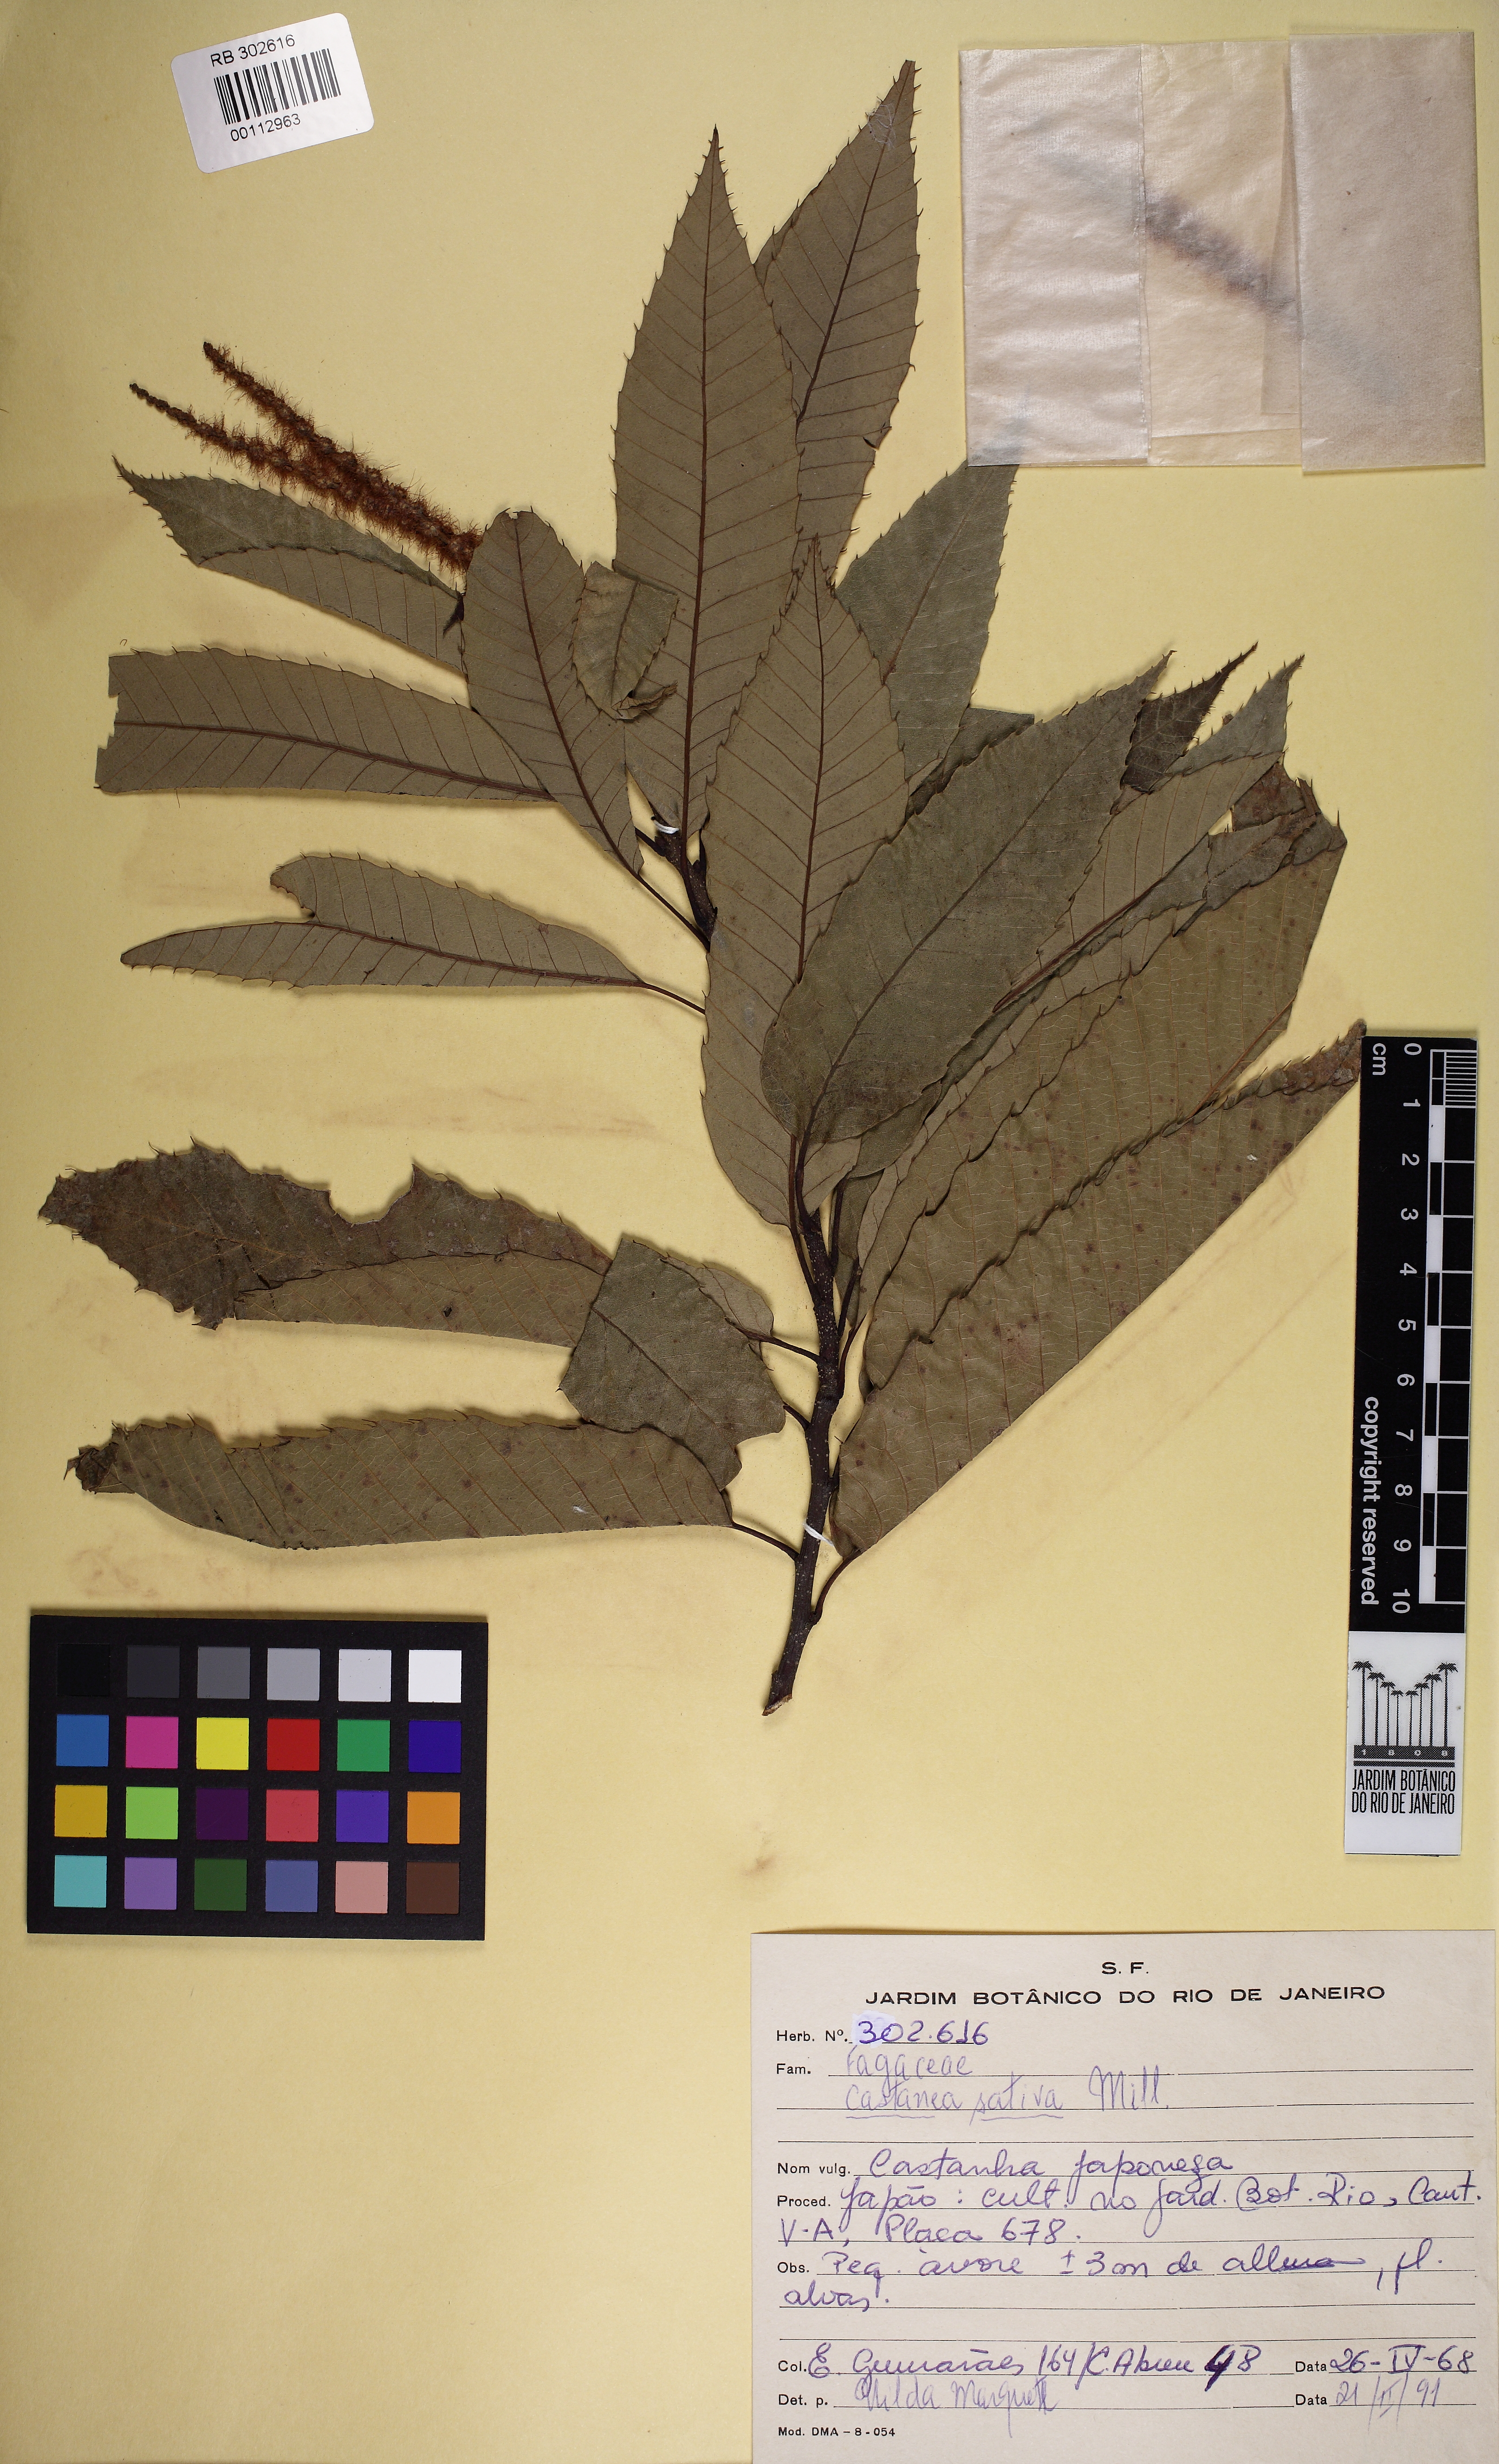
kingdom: Plantae
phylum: Tracheophyta
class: Magnoliopsida
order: Fagales
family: Fagaceae
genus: Castanea
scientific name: Castanea sativa
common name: Sweet chestnut
